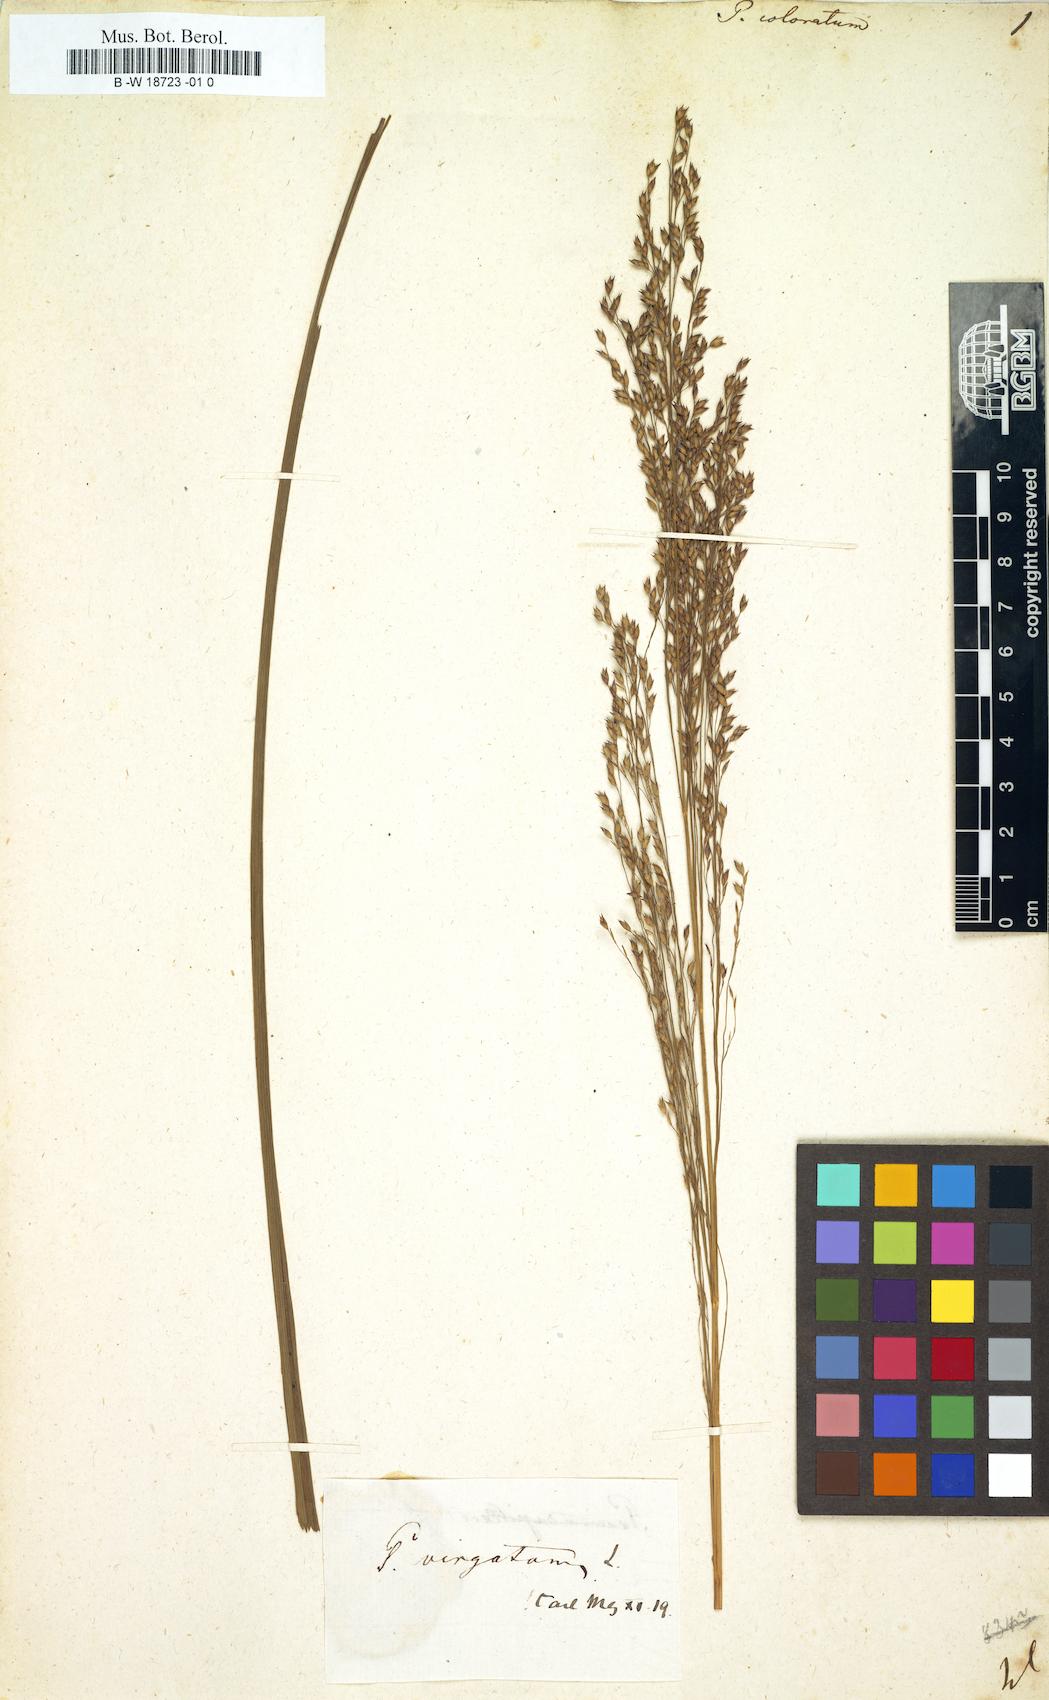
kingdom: Plantae
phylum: Tracheophyta
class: Liliopsida
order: Poales
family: Poaceae
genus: Panicum
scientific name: Panicum coloratum
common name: Kleingrass
